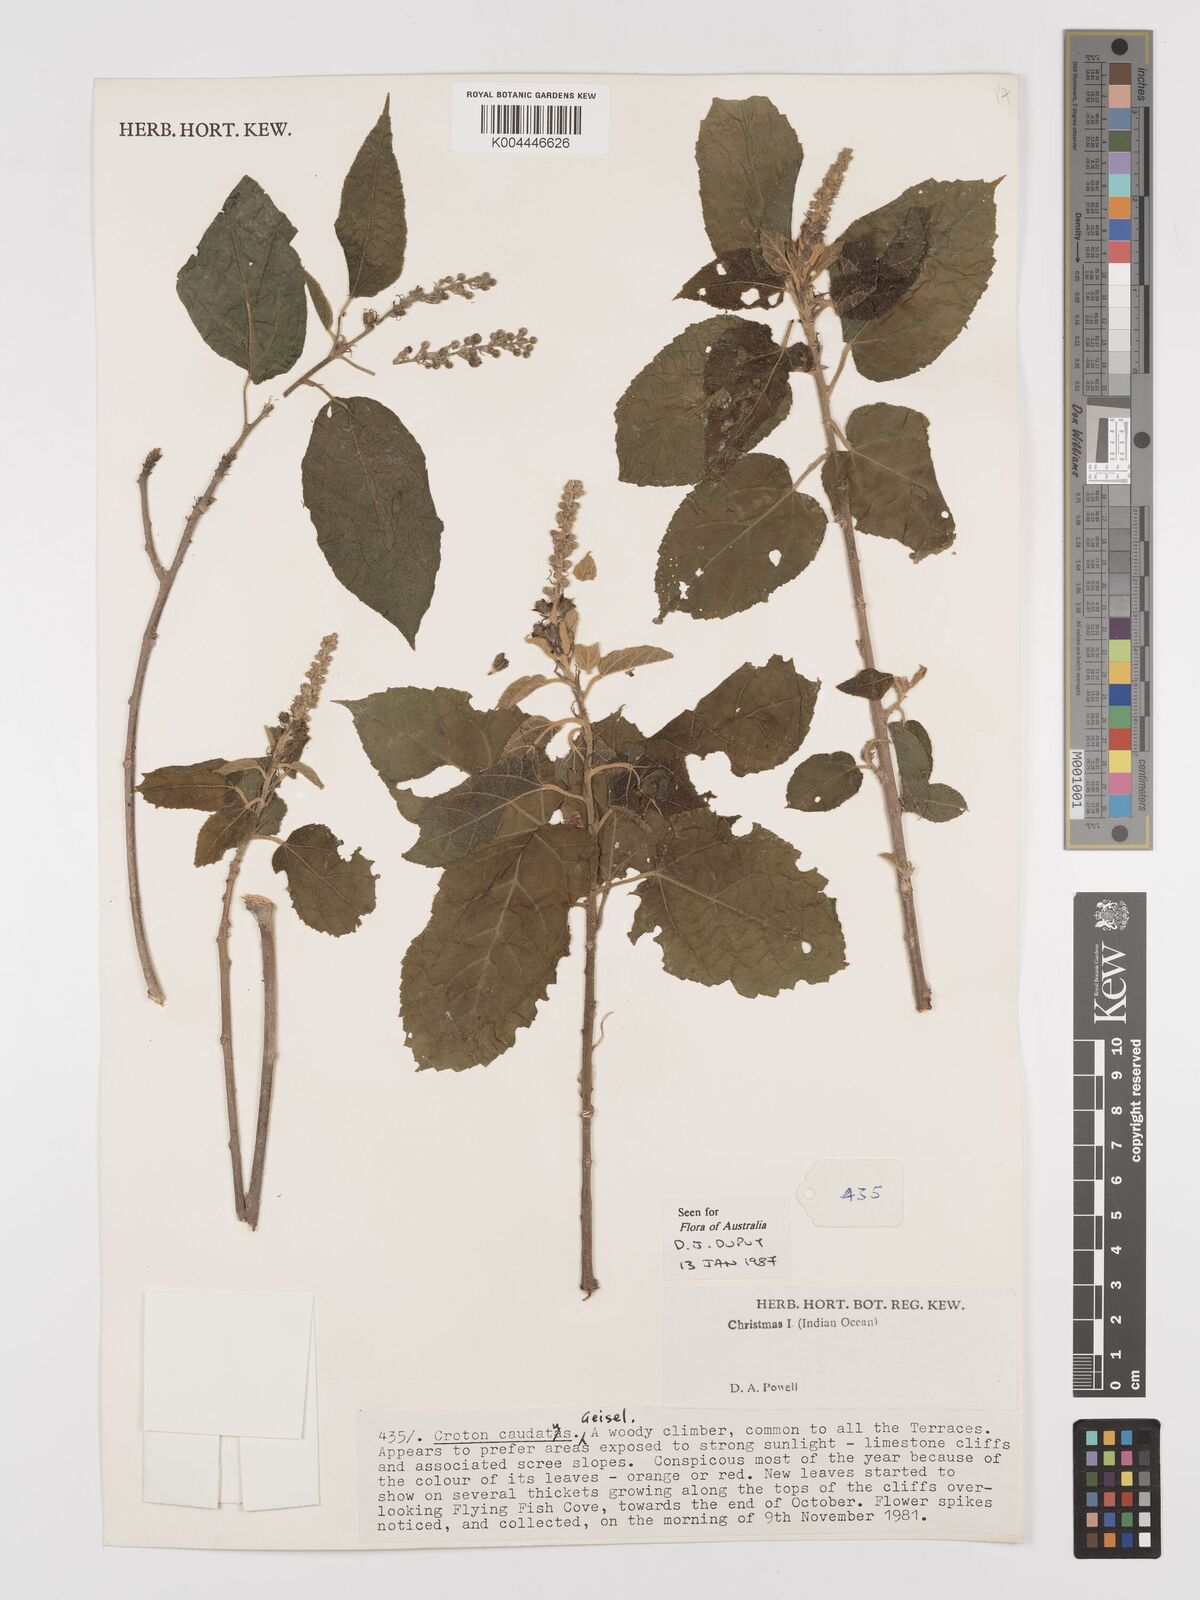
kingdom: Plantae
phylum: Tracheophyta
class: Magnoliopsida
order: Malpighiales
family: Euphorbiaceae
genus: Croton
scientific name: Croton caudatus
